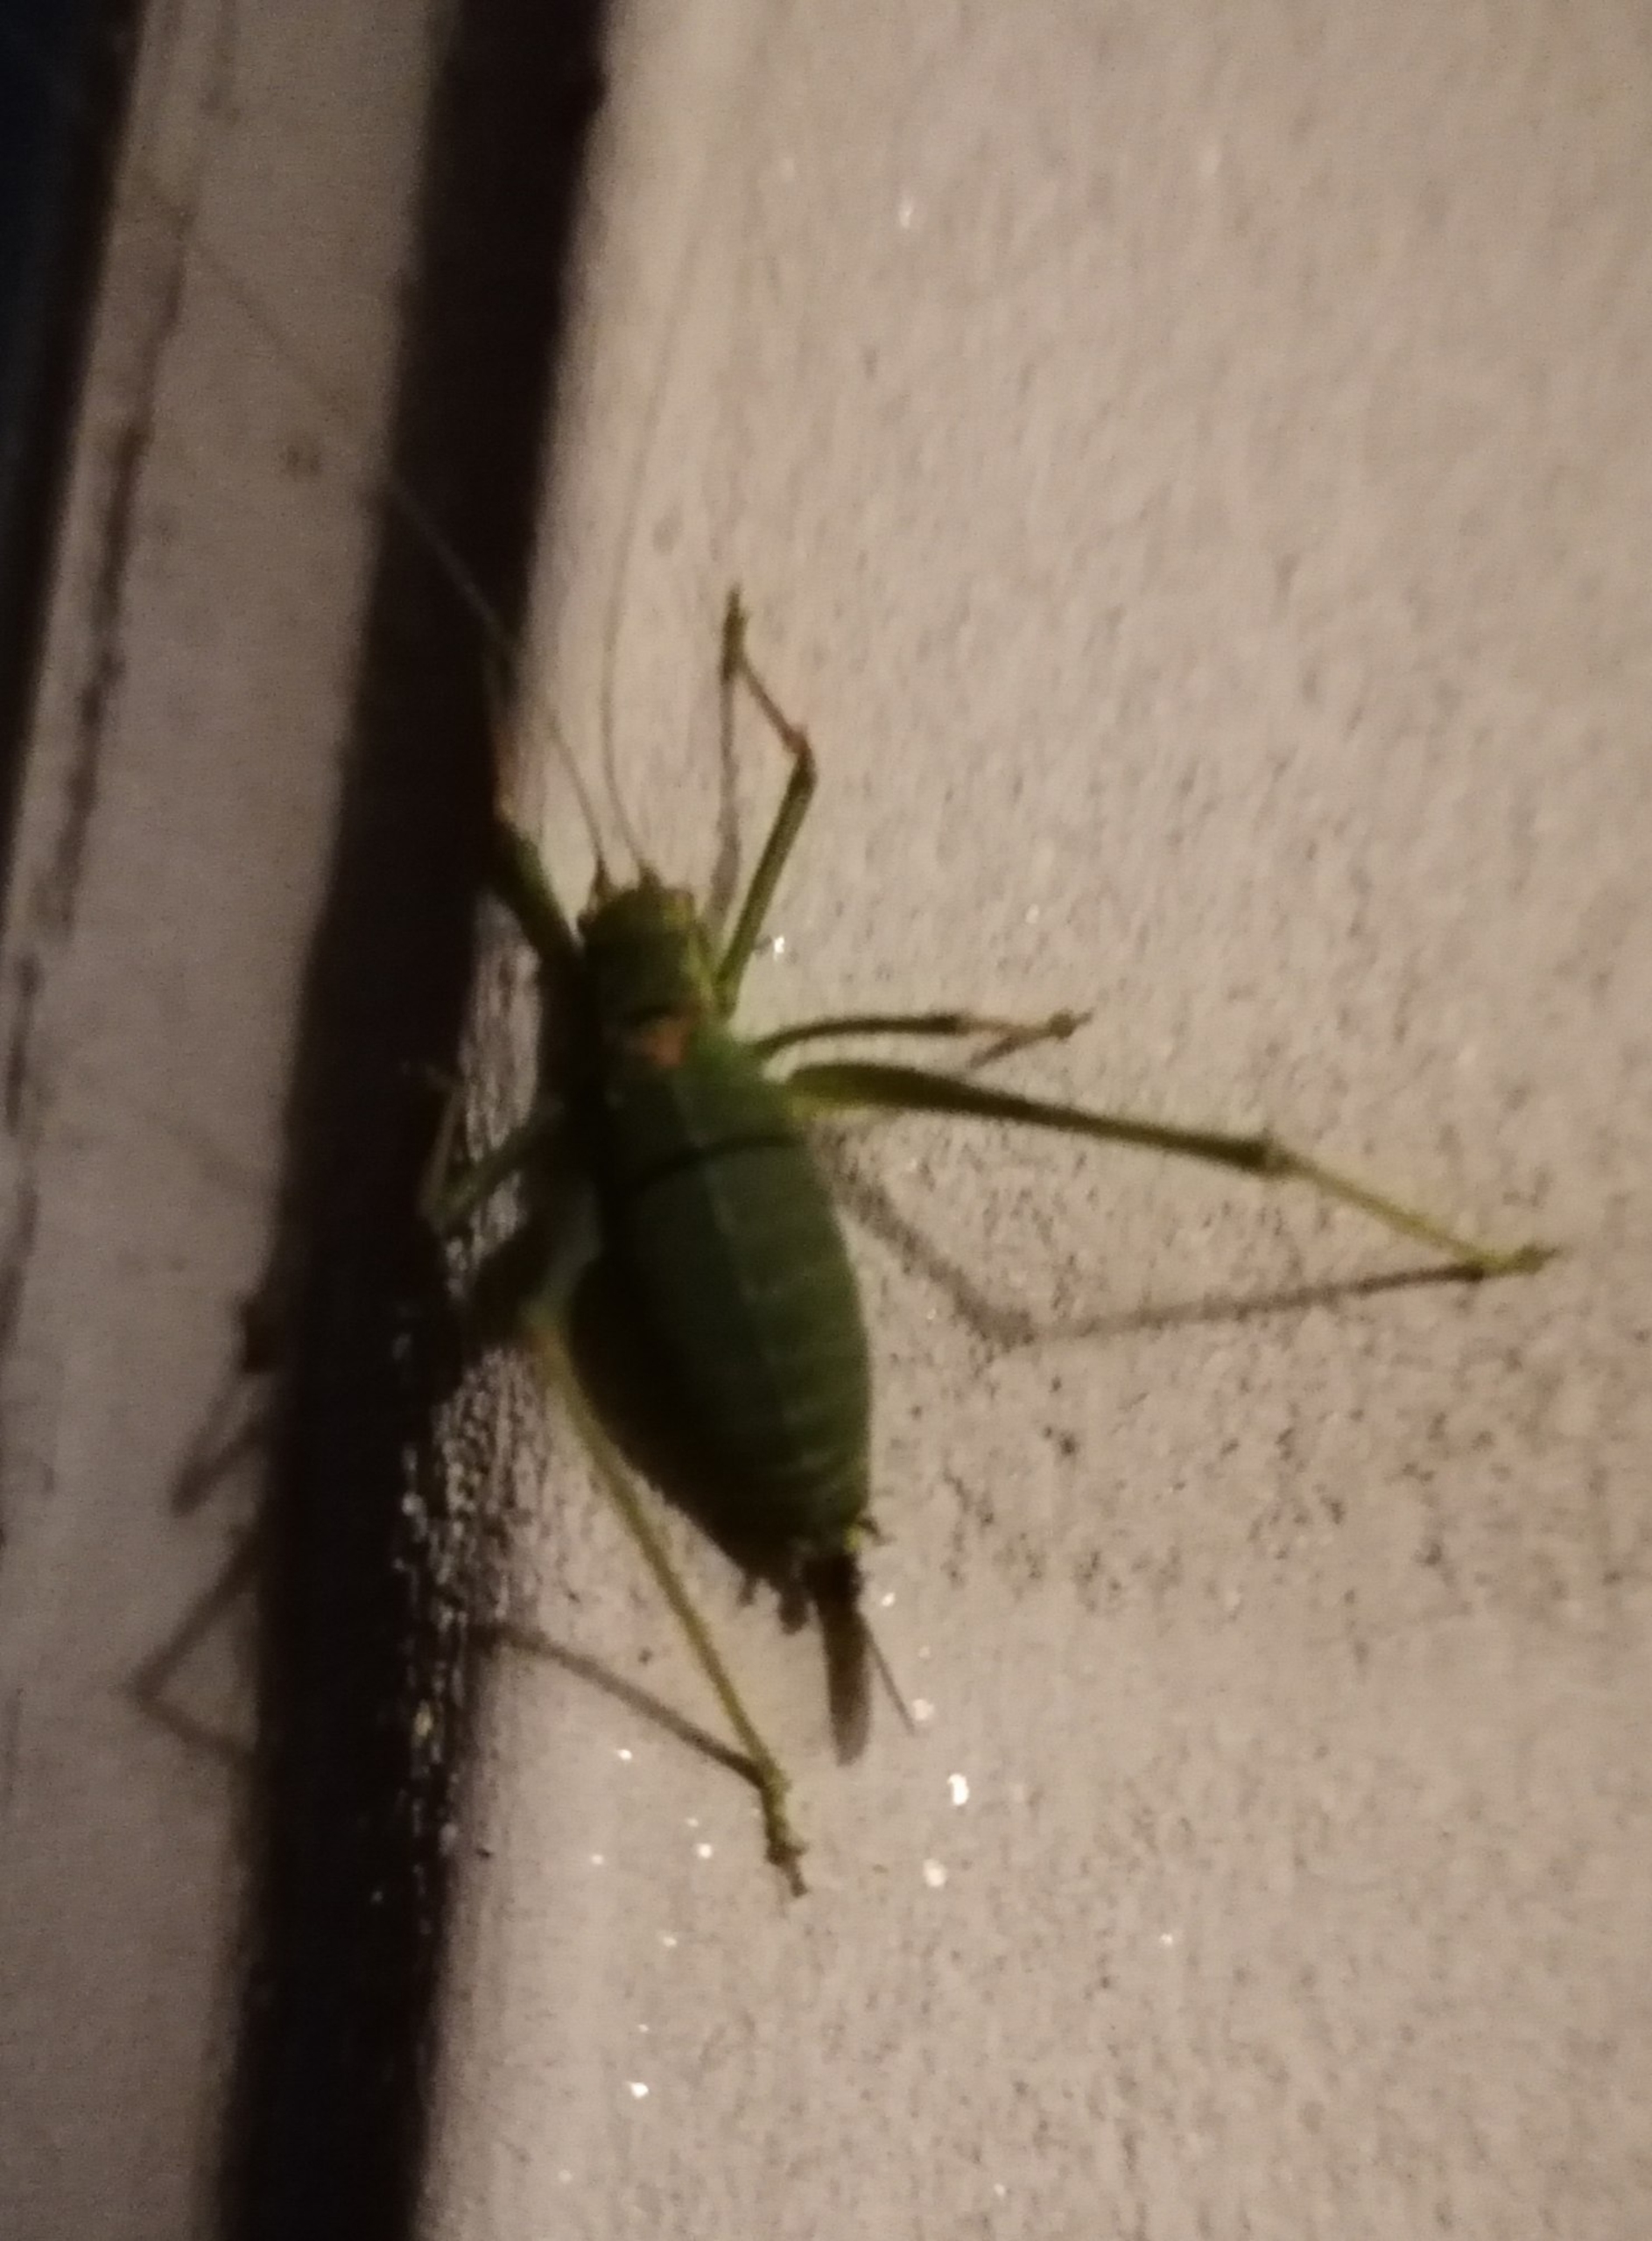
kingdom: Animalia
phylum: Arthropoda
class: Insecta
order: Orthoptera
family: Tettigoniidae
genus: Leptophyes
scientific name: Leptophyes punctatissima
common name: Krumknivgræshoppe
